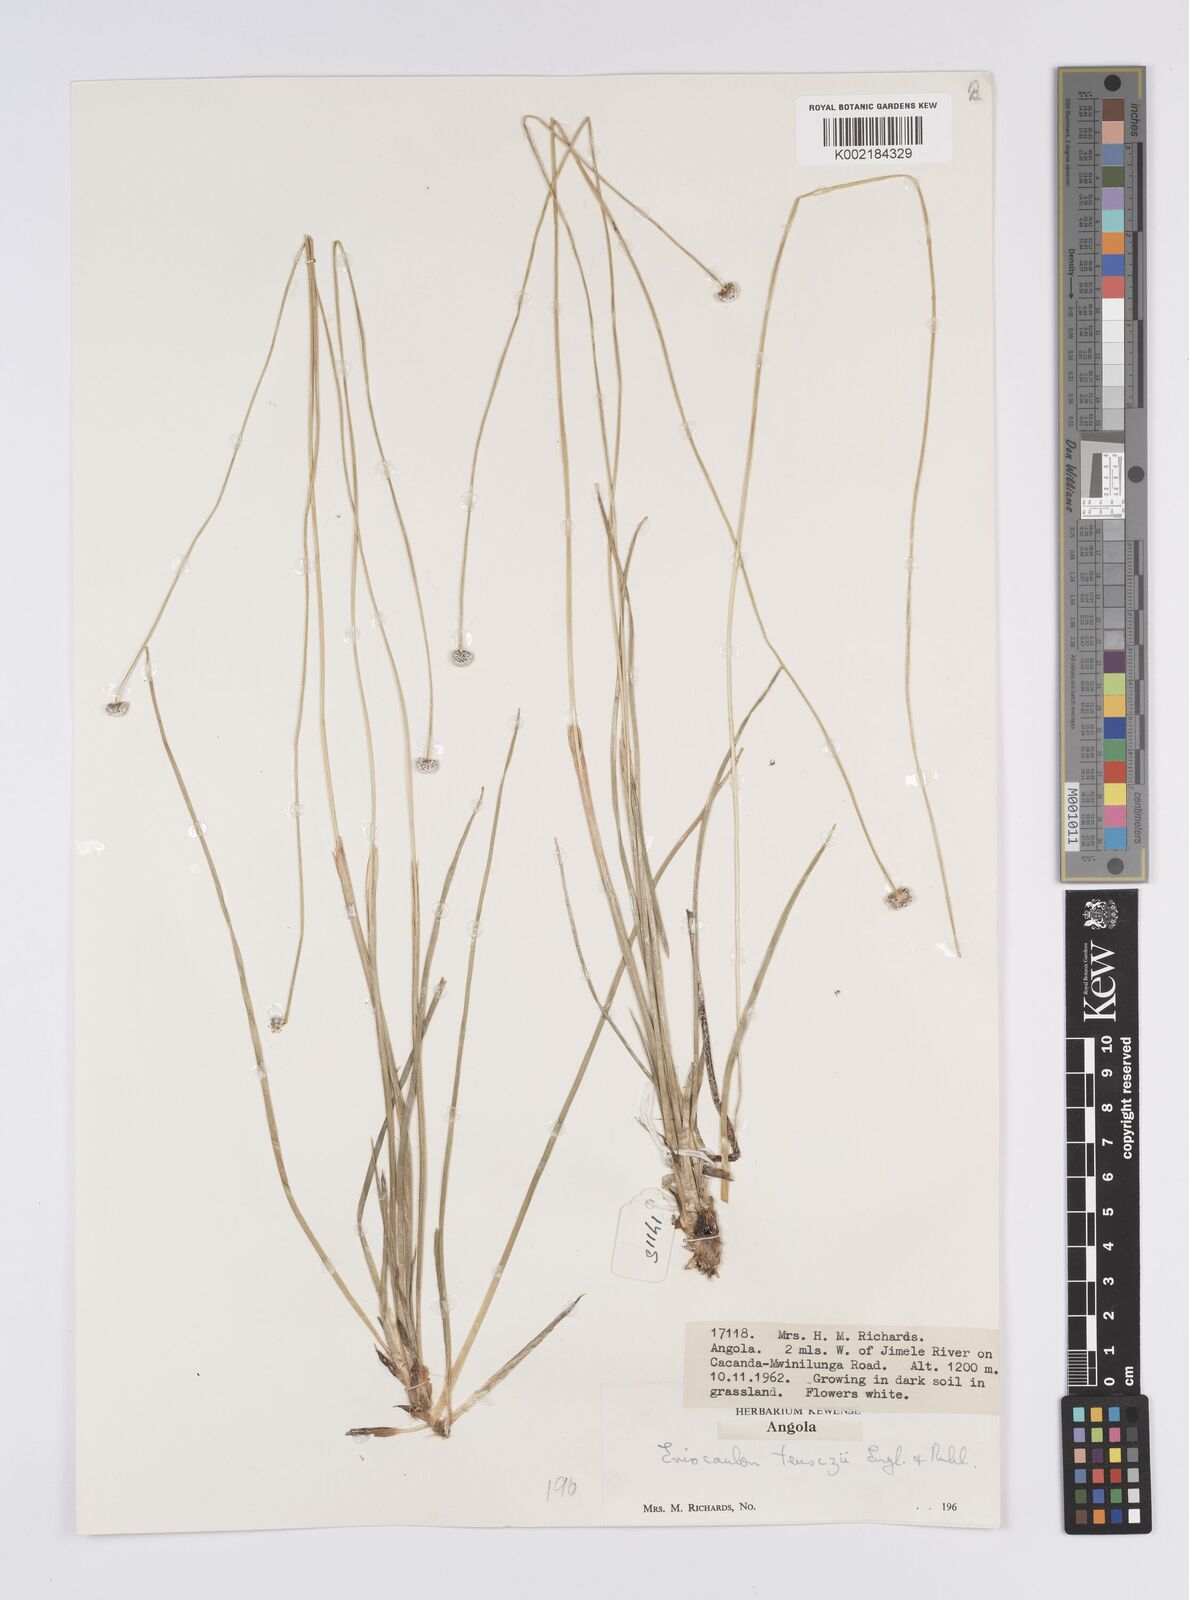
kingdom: Plantae
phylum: Tracheophyta
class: Liliopsida
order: Poales
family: Eriocaulaceae
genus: Eriocaulon
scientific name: Eriocaulon teusczii
